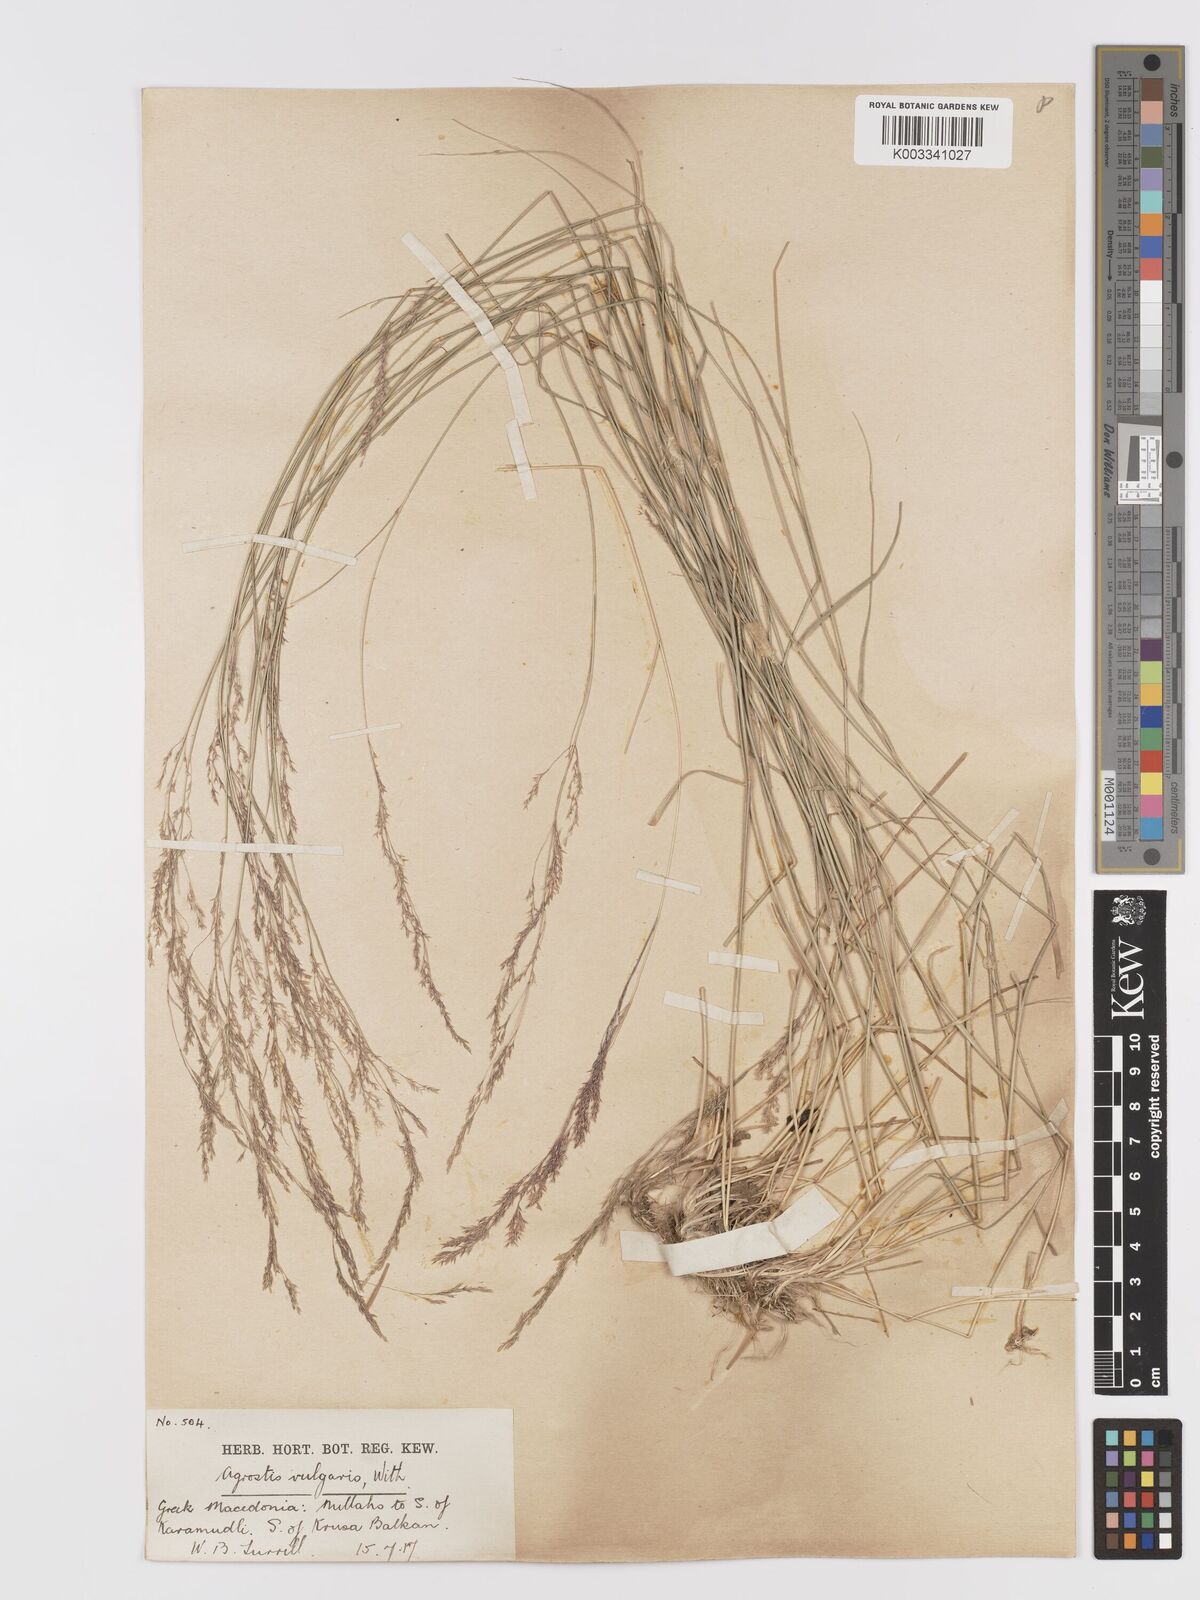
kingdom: Plantae
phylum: Tracheophyta
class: Liliopsida
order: Poales
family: Poaceae
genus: Agrostis
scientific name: Agrostis capillaris
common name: Colonial bentgrass
